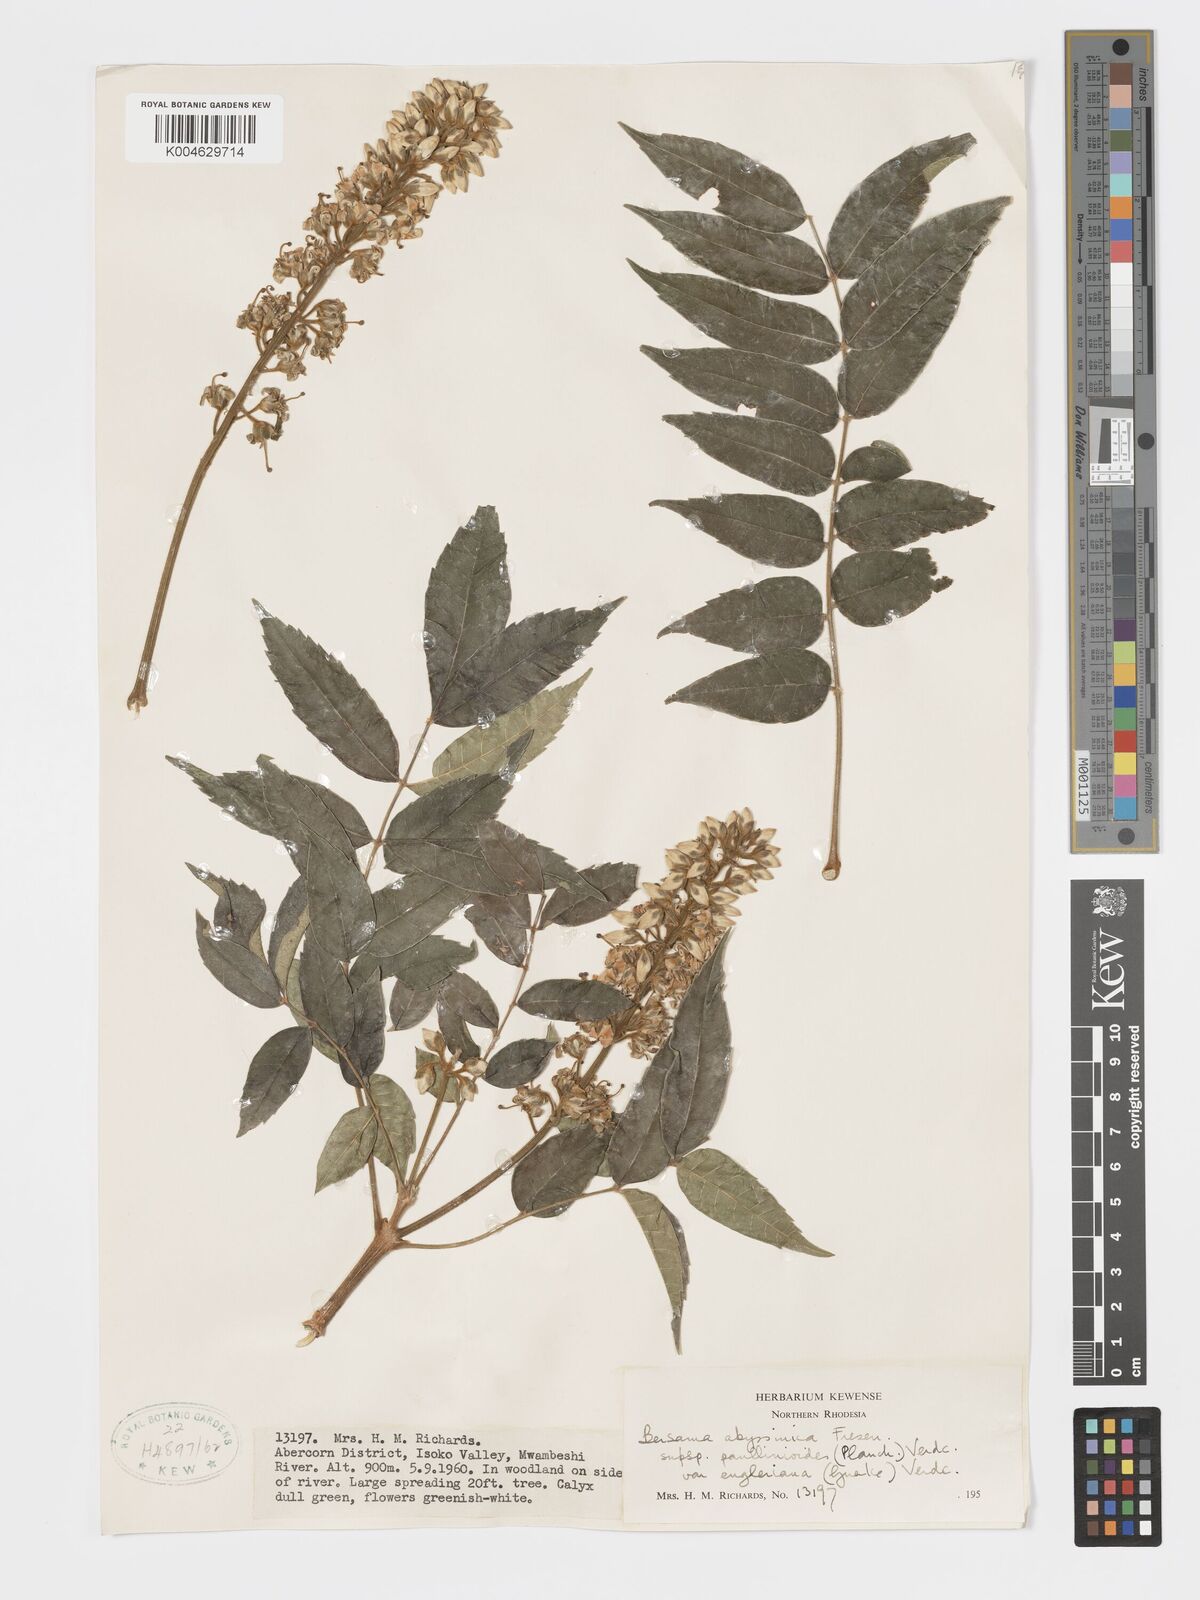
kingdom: Plantae
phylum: Tracheophyta
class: Magnoliopsida
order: Geraniales
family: Melianthaceae
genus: Bersama
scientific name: Bersama abyssinica
